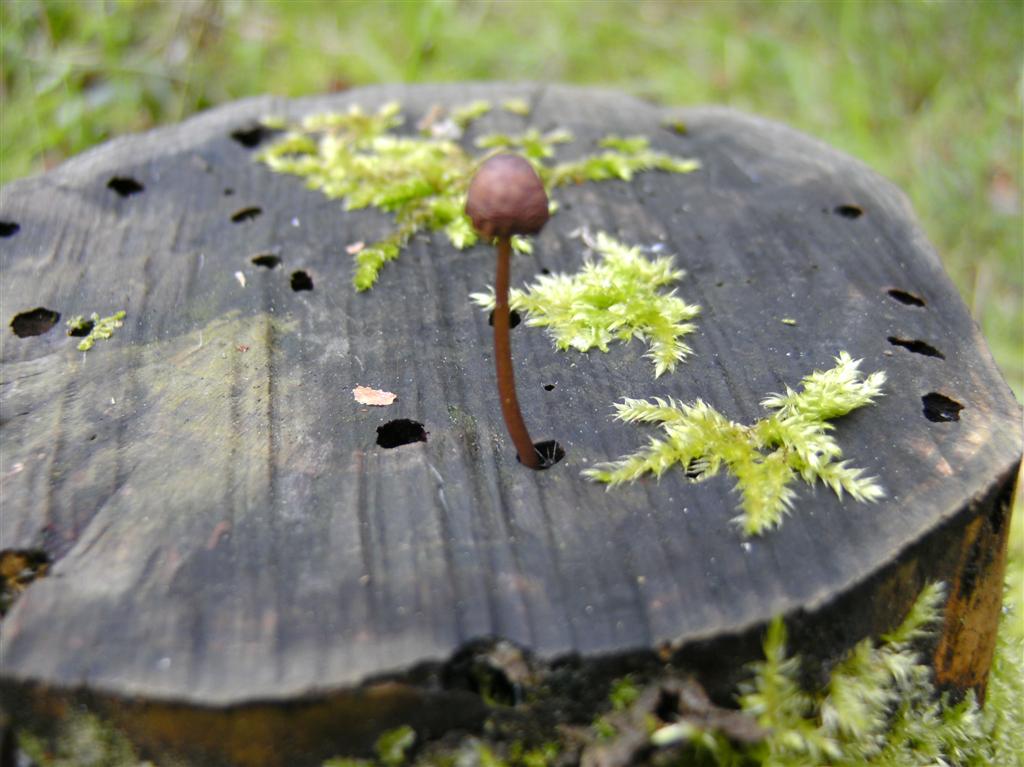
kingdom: Fungi
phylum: Basidiomycota
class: Agaricomycetes
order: Agaricales
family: Mycenaceae
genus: Mycena
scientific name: Mycena sanguinolenta
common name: rødmælket huesvamp
